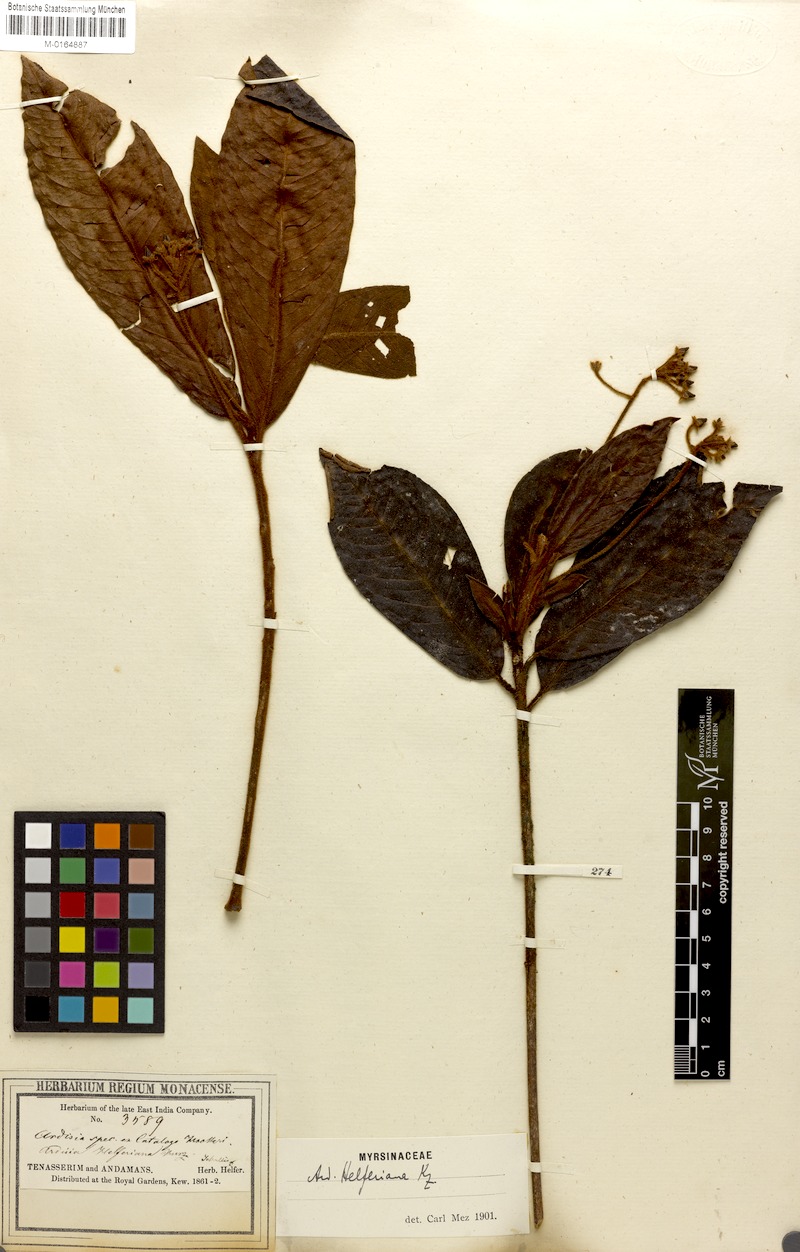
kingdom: Plantae
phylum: Tracheophyta
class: Magnoliopsida
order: Ericales
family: Primulaceae
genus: Ardisia
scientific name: Ardisia helferiana
